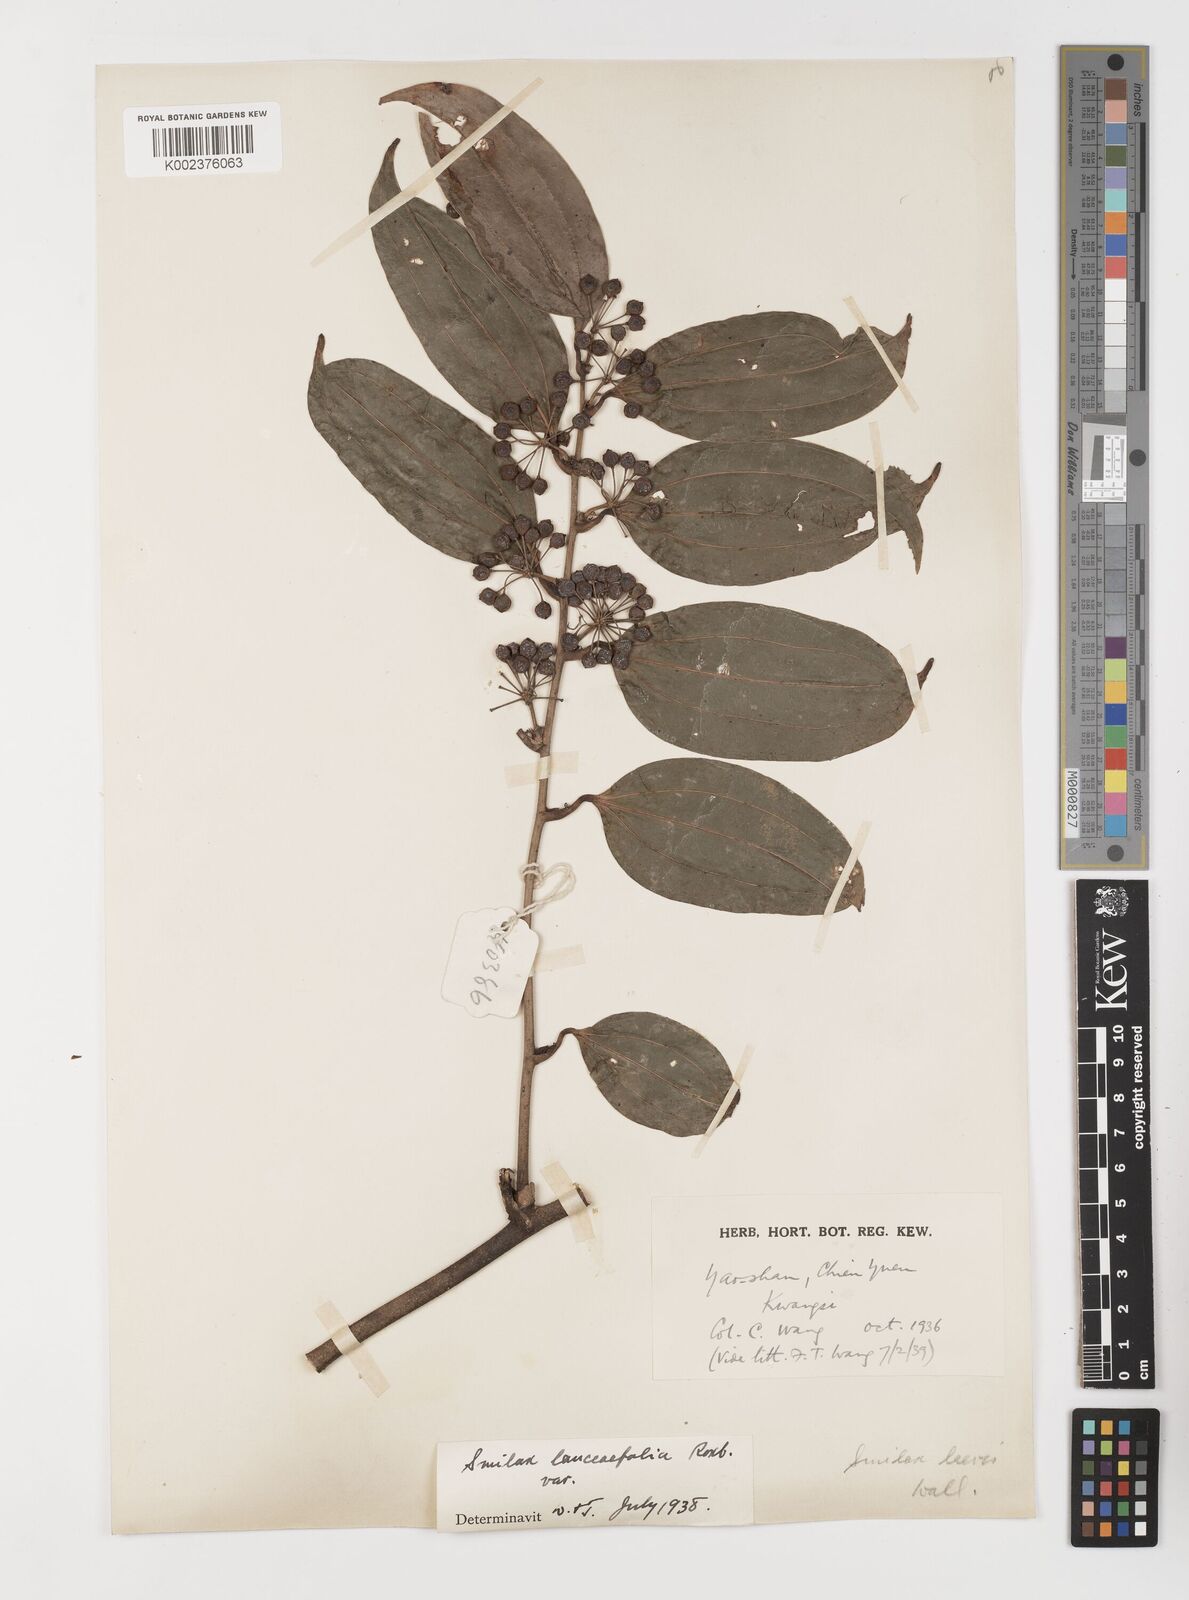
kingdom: Plantae
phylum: Tracheophyta
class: Liliopsida
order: Liliales
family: Smilacaceae
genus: Smilax
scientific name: Smilax lanceifolia
